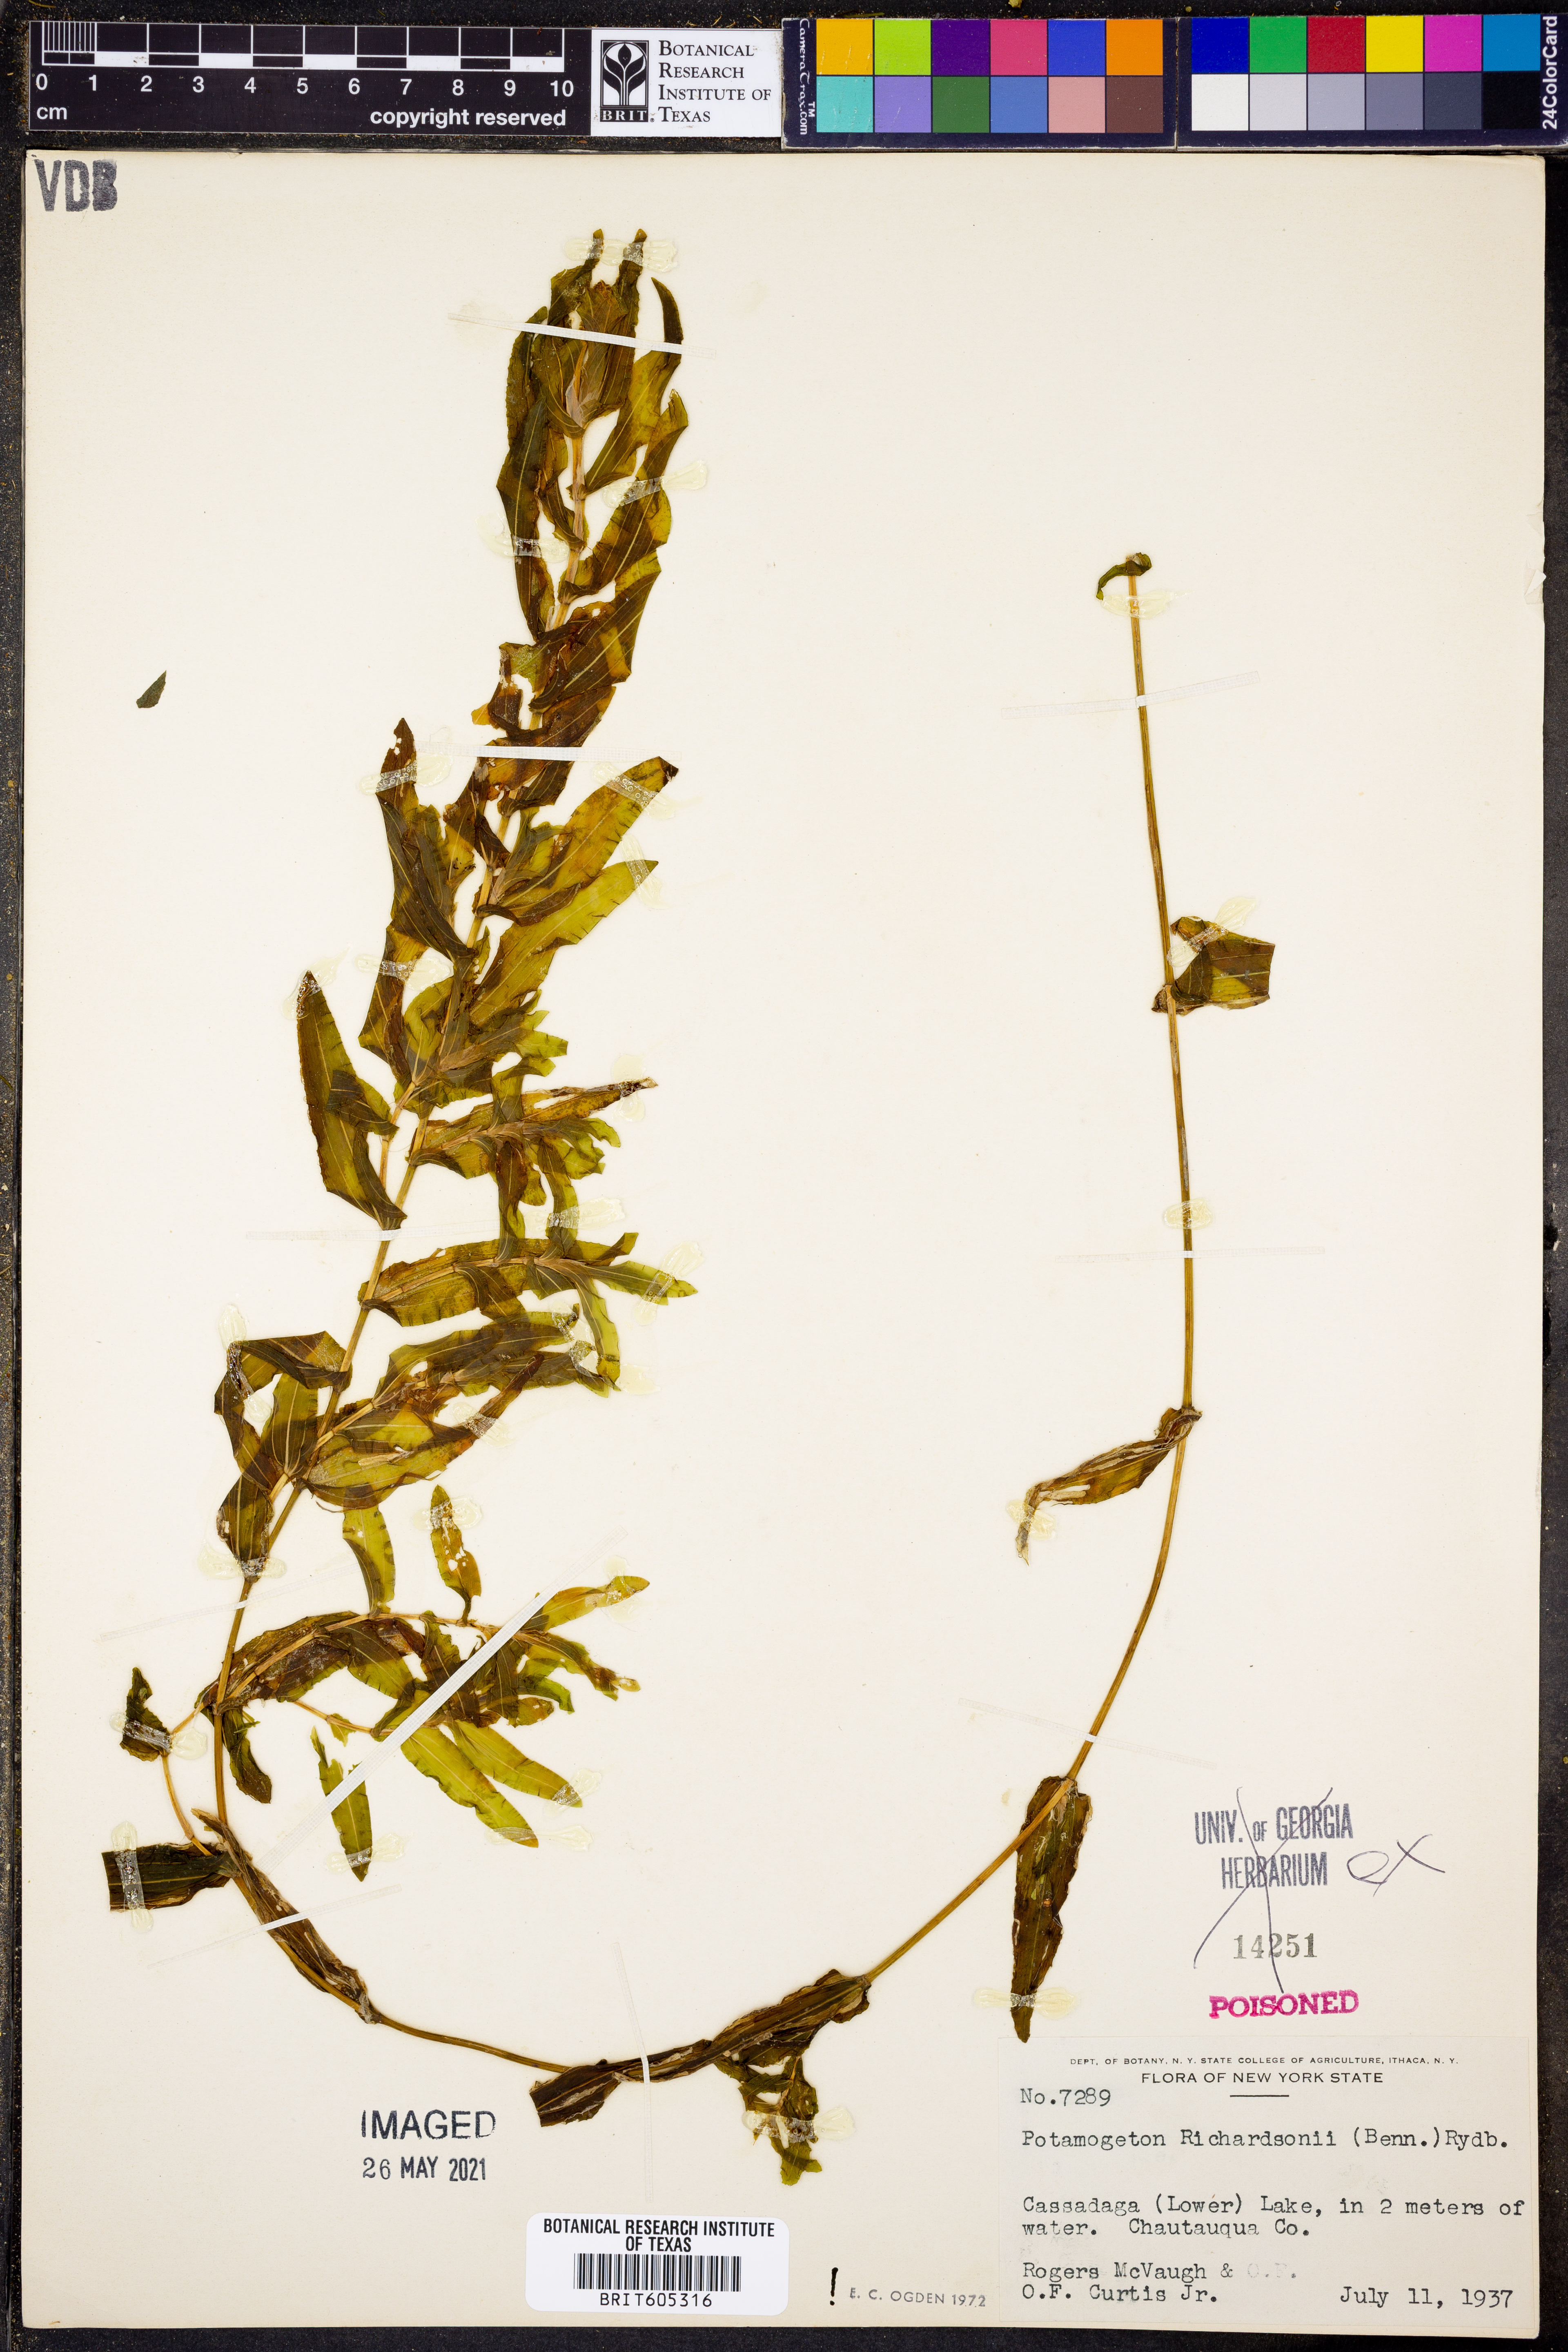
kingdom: Plantae
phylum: Tracheophyta
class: Liliopsida
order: Alismatales
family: Potamogetonaceae
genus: Potamogeton
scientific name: Potamogeton richardsonii
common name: Richardson's pondweed
